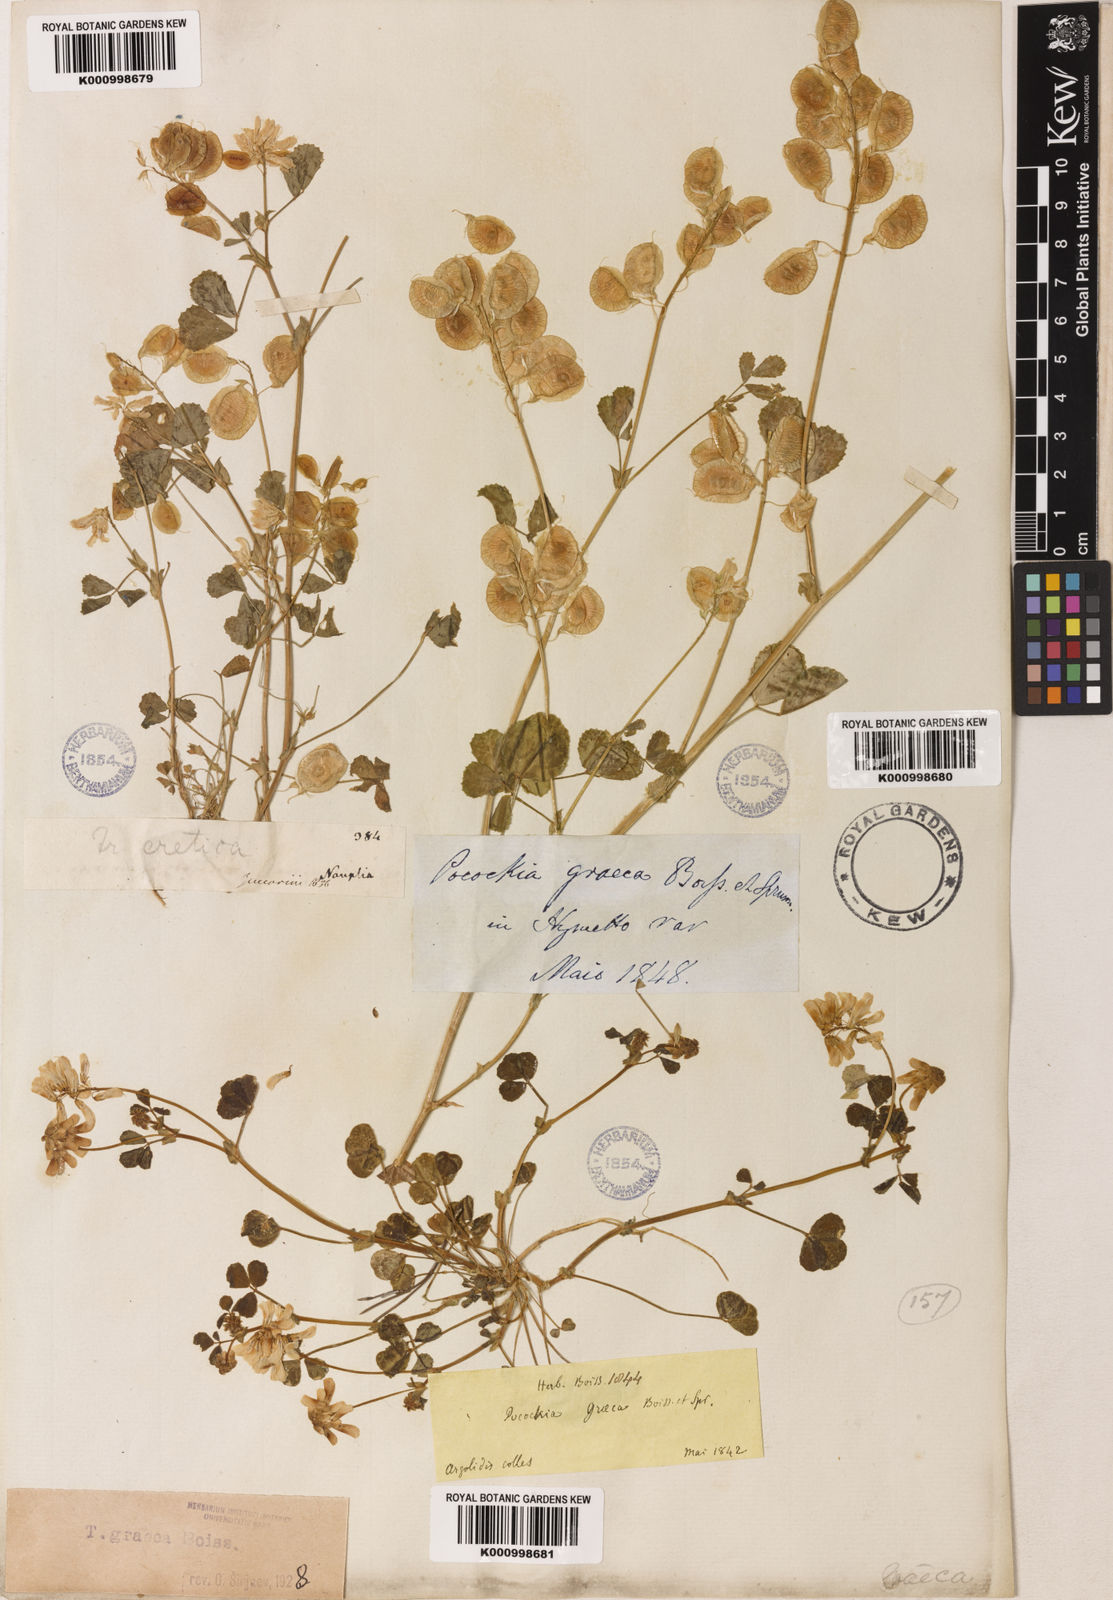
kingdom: Plantae
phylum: Tracheophyta
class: Magnoliopsida
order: Fabales
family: Fabaceae
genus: Trigonella
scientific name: Trigonella graeca
